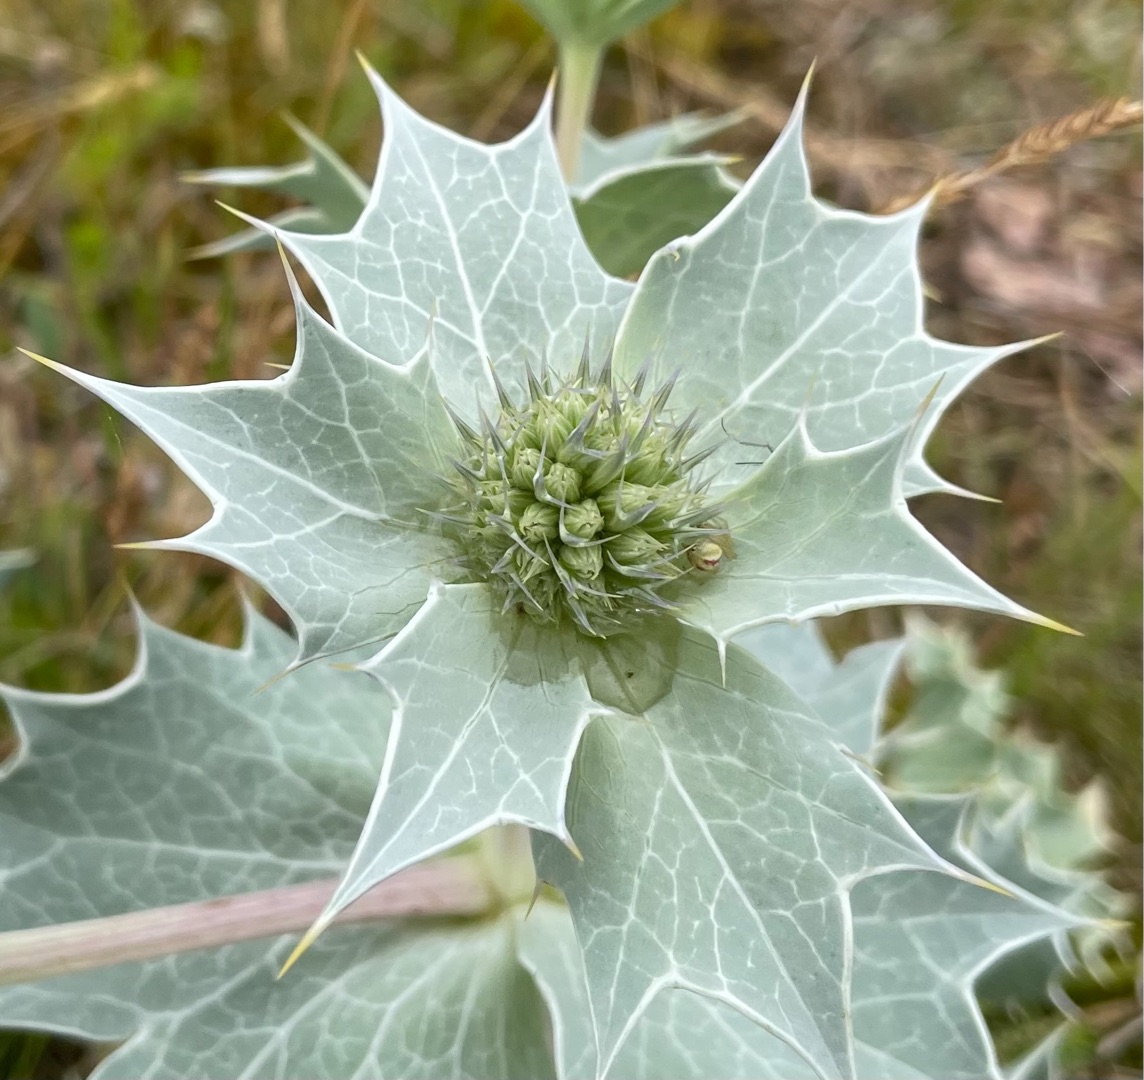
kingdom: Plantae
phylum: Tracheophyta
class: Magnoliopsida
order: Apiales
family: Apiaceae
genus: Eryngium
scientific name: Eryngium maritimum
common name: Strand-mandstro
